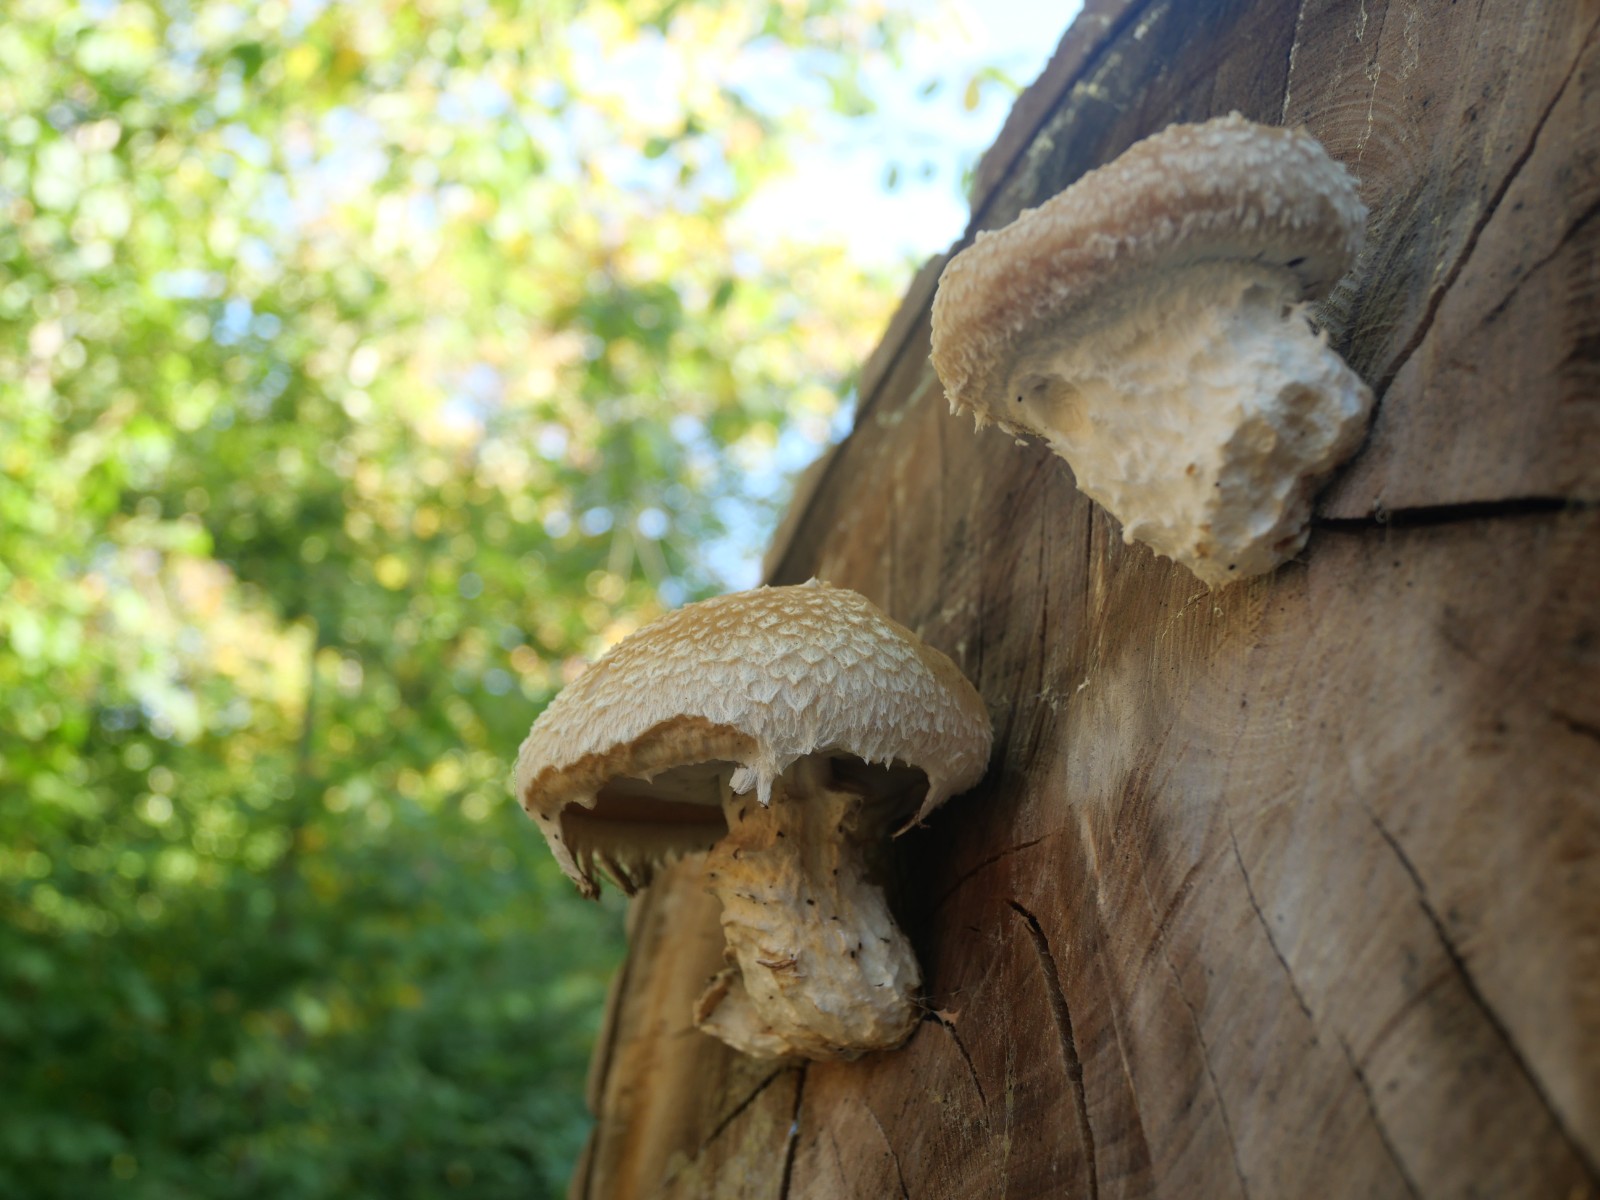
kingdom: Fungi
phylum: Basidiomycota
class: Agaricomycetes
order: Agaricales
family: Strophariaceae
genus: Pholiota
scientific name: Pholiota populnea
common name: poppel-kæmpeskælhat
